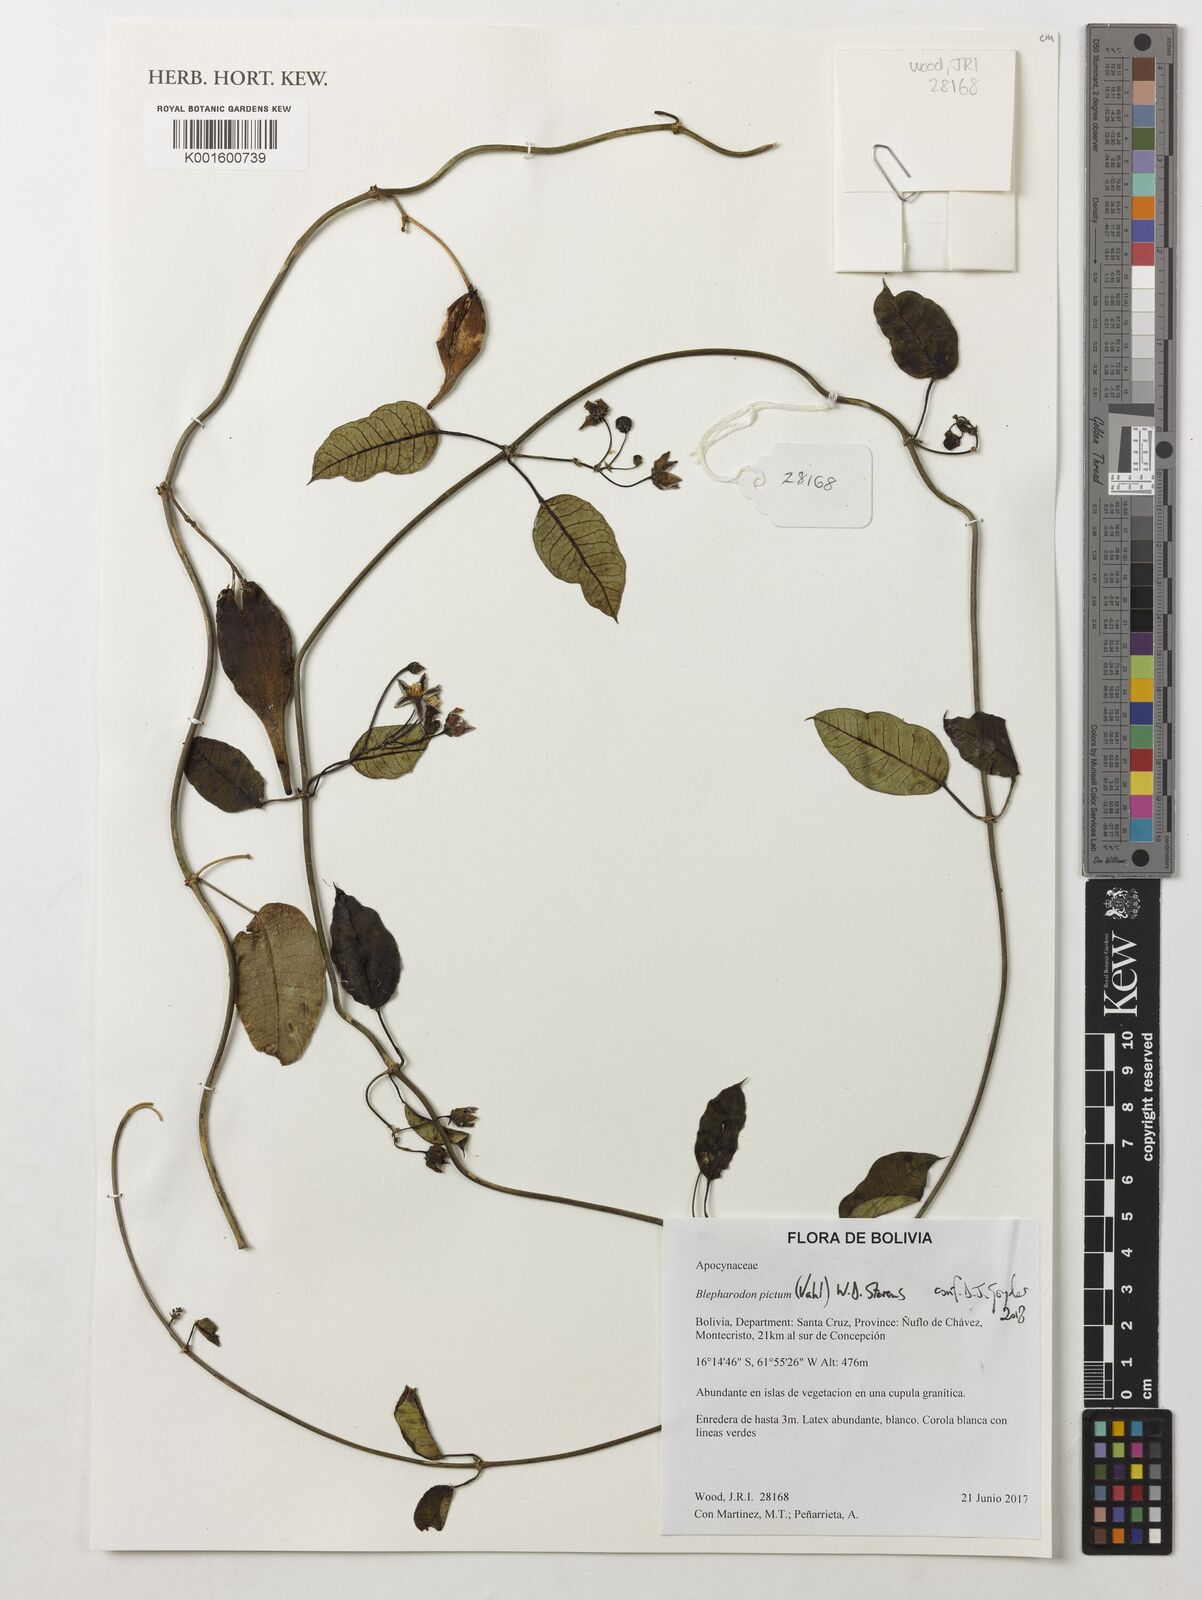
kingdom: Plantae
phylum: Tracheophyta
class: Magnoliopsida
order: Gentianales
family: Apocynaceae
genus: Blepharodon
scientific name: Blepharodon pictum
